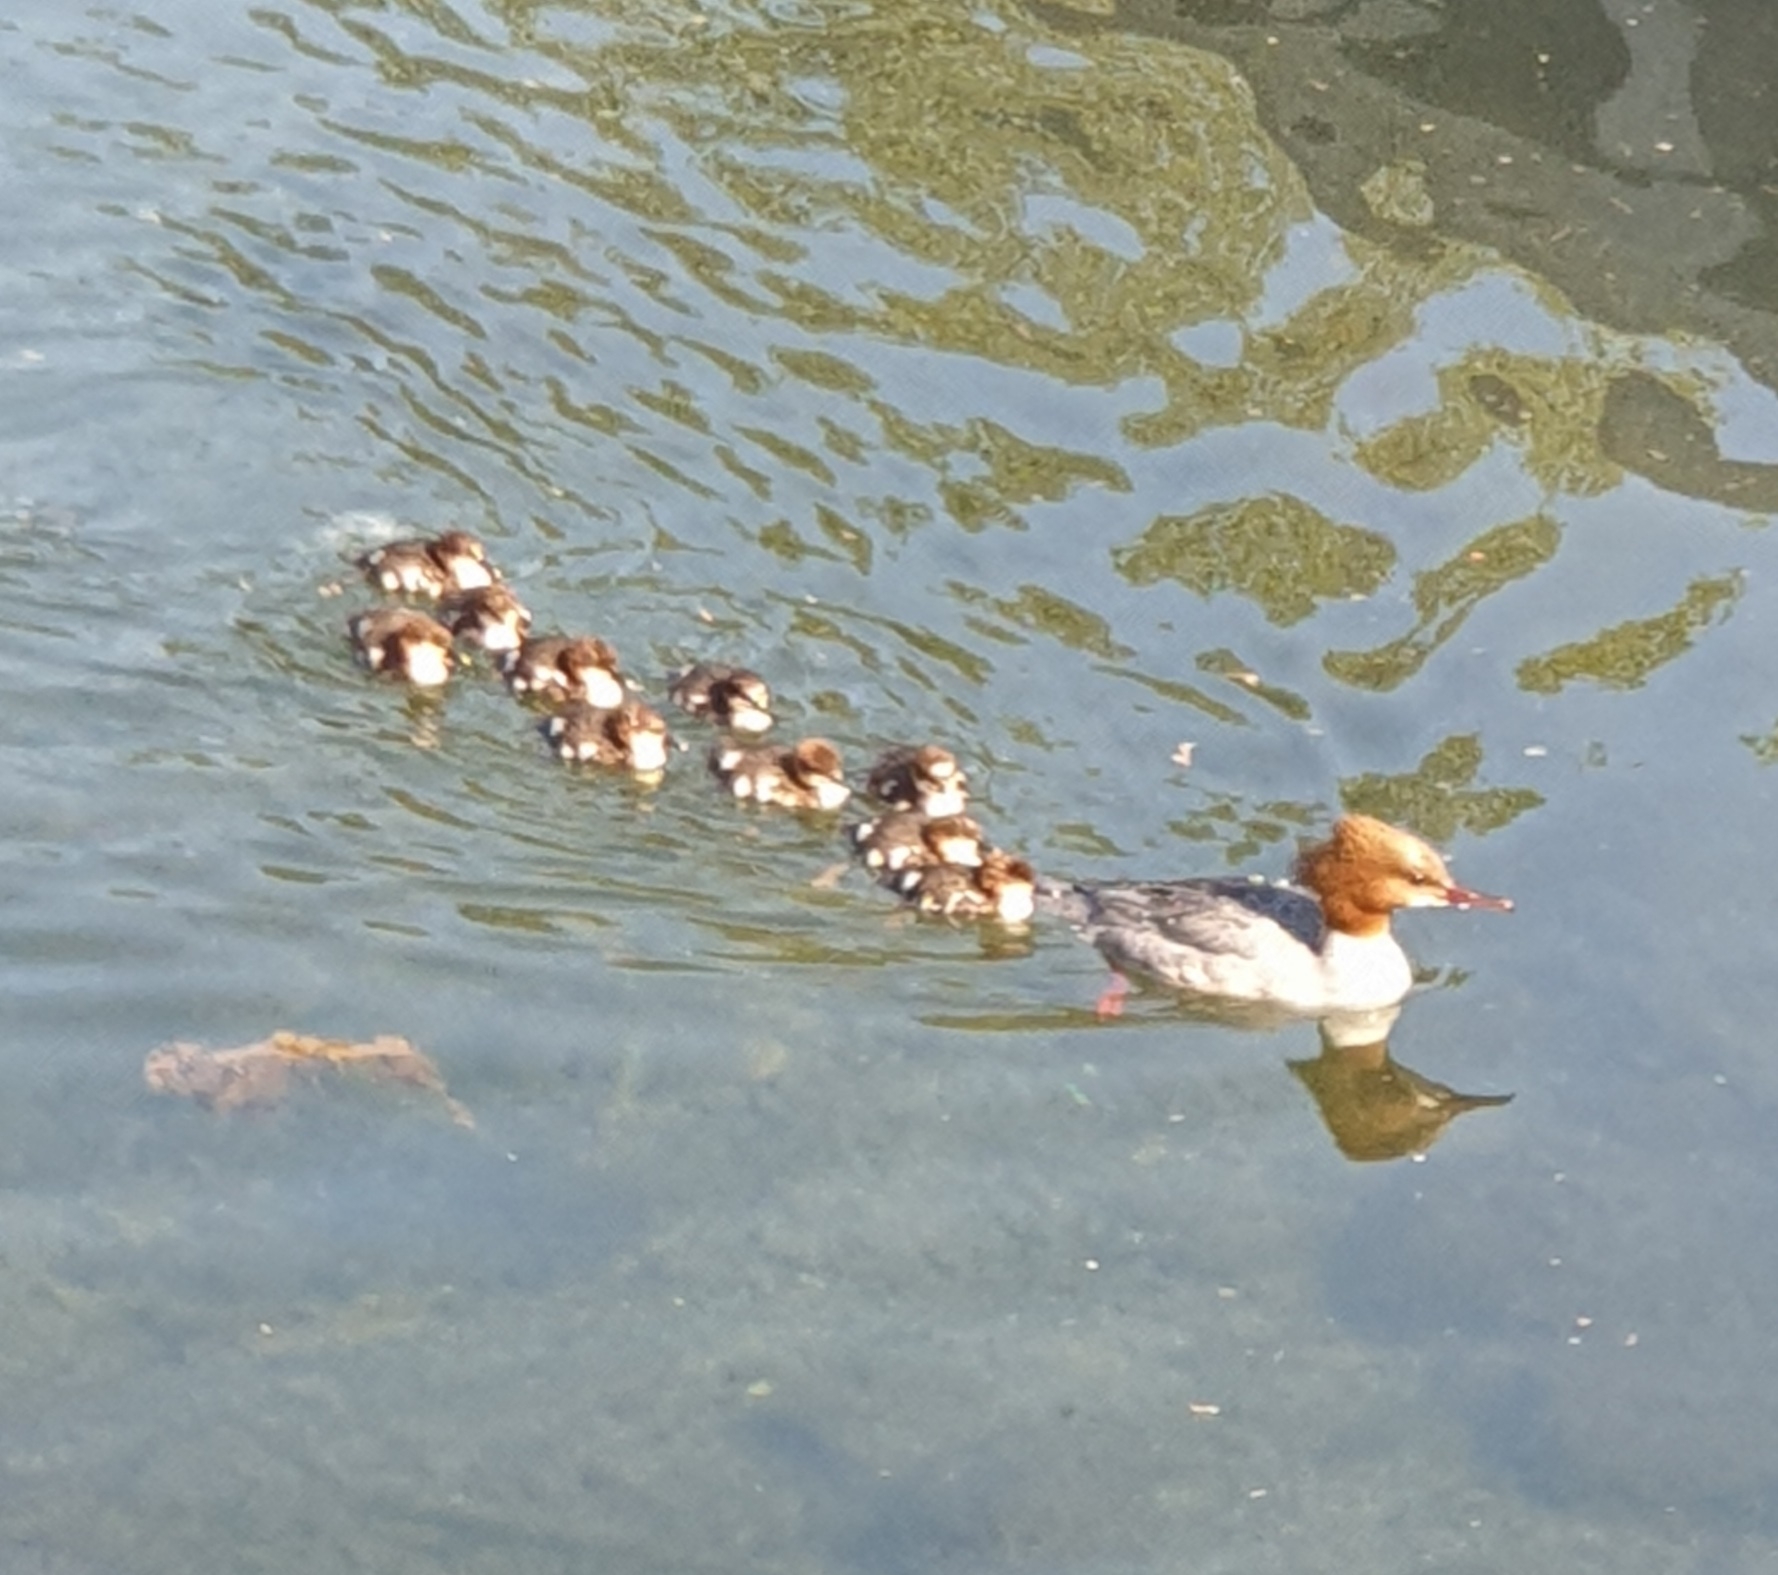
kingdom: Animalia
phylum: Chordata
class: Aves
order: Anseriformes
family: Anatidae
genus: Mergus
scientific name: Mergus merganser
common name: Stor skallesluger
